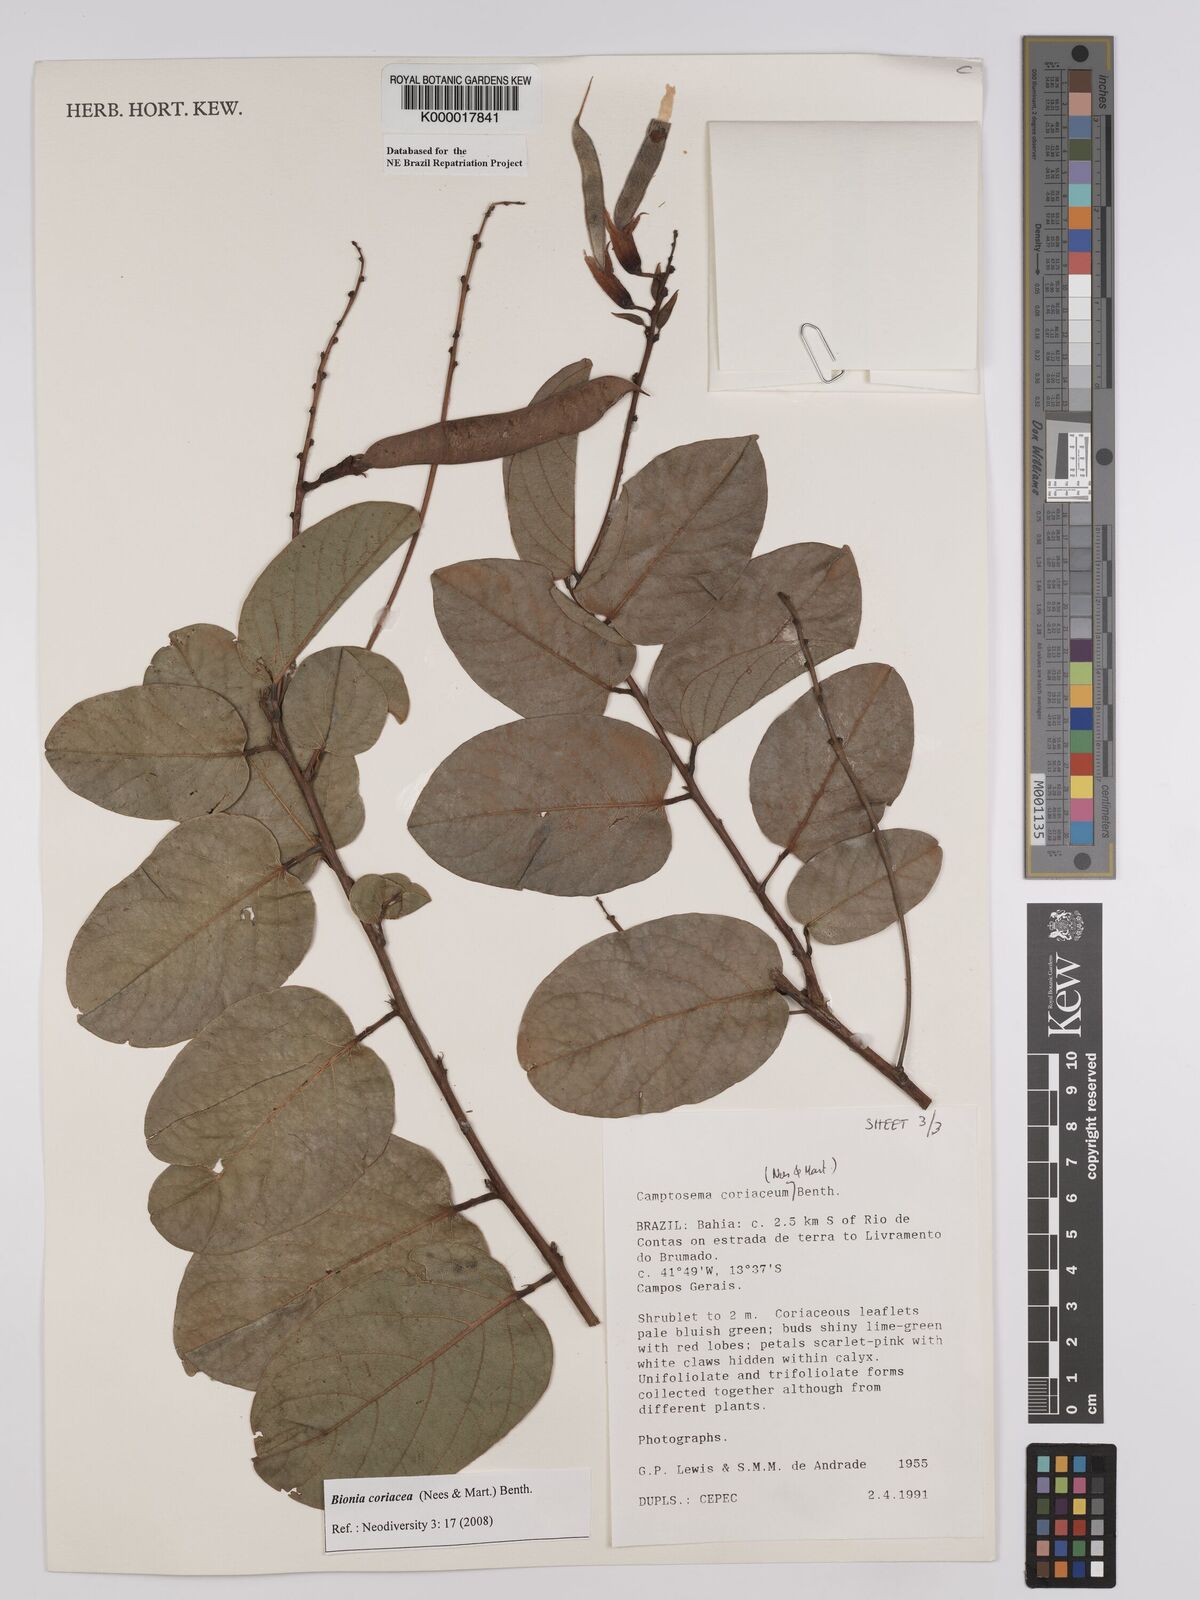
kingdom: Plantae
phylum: Tracheophyta
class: Magnoliopsida
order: Fabales
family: Fabaceae
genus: Camptosema
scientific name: Camptosema coriaceum
